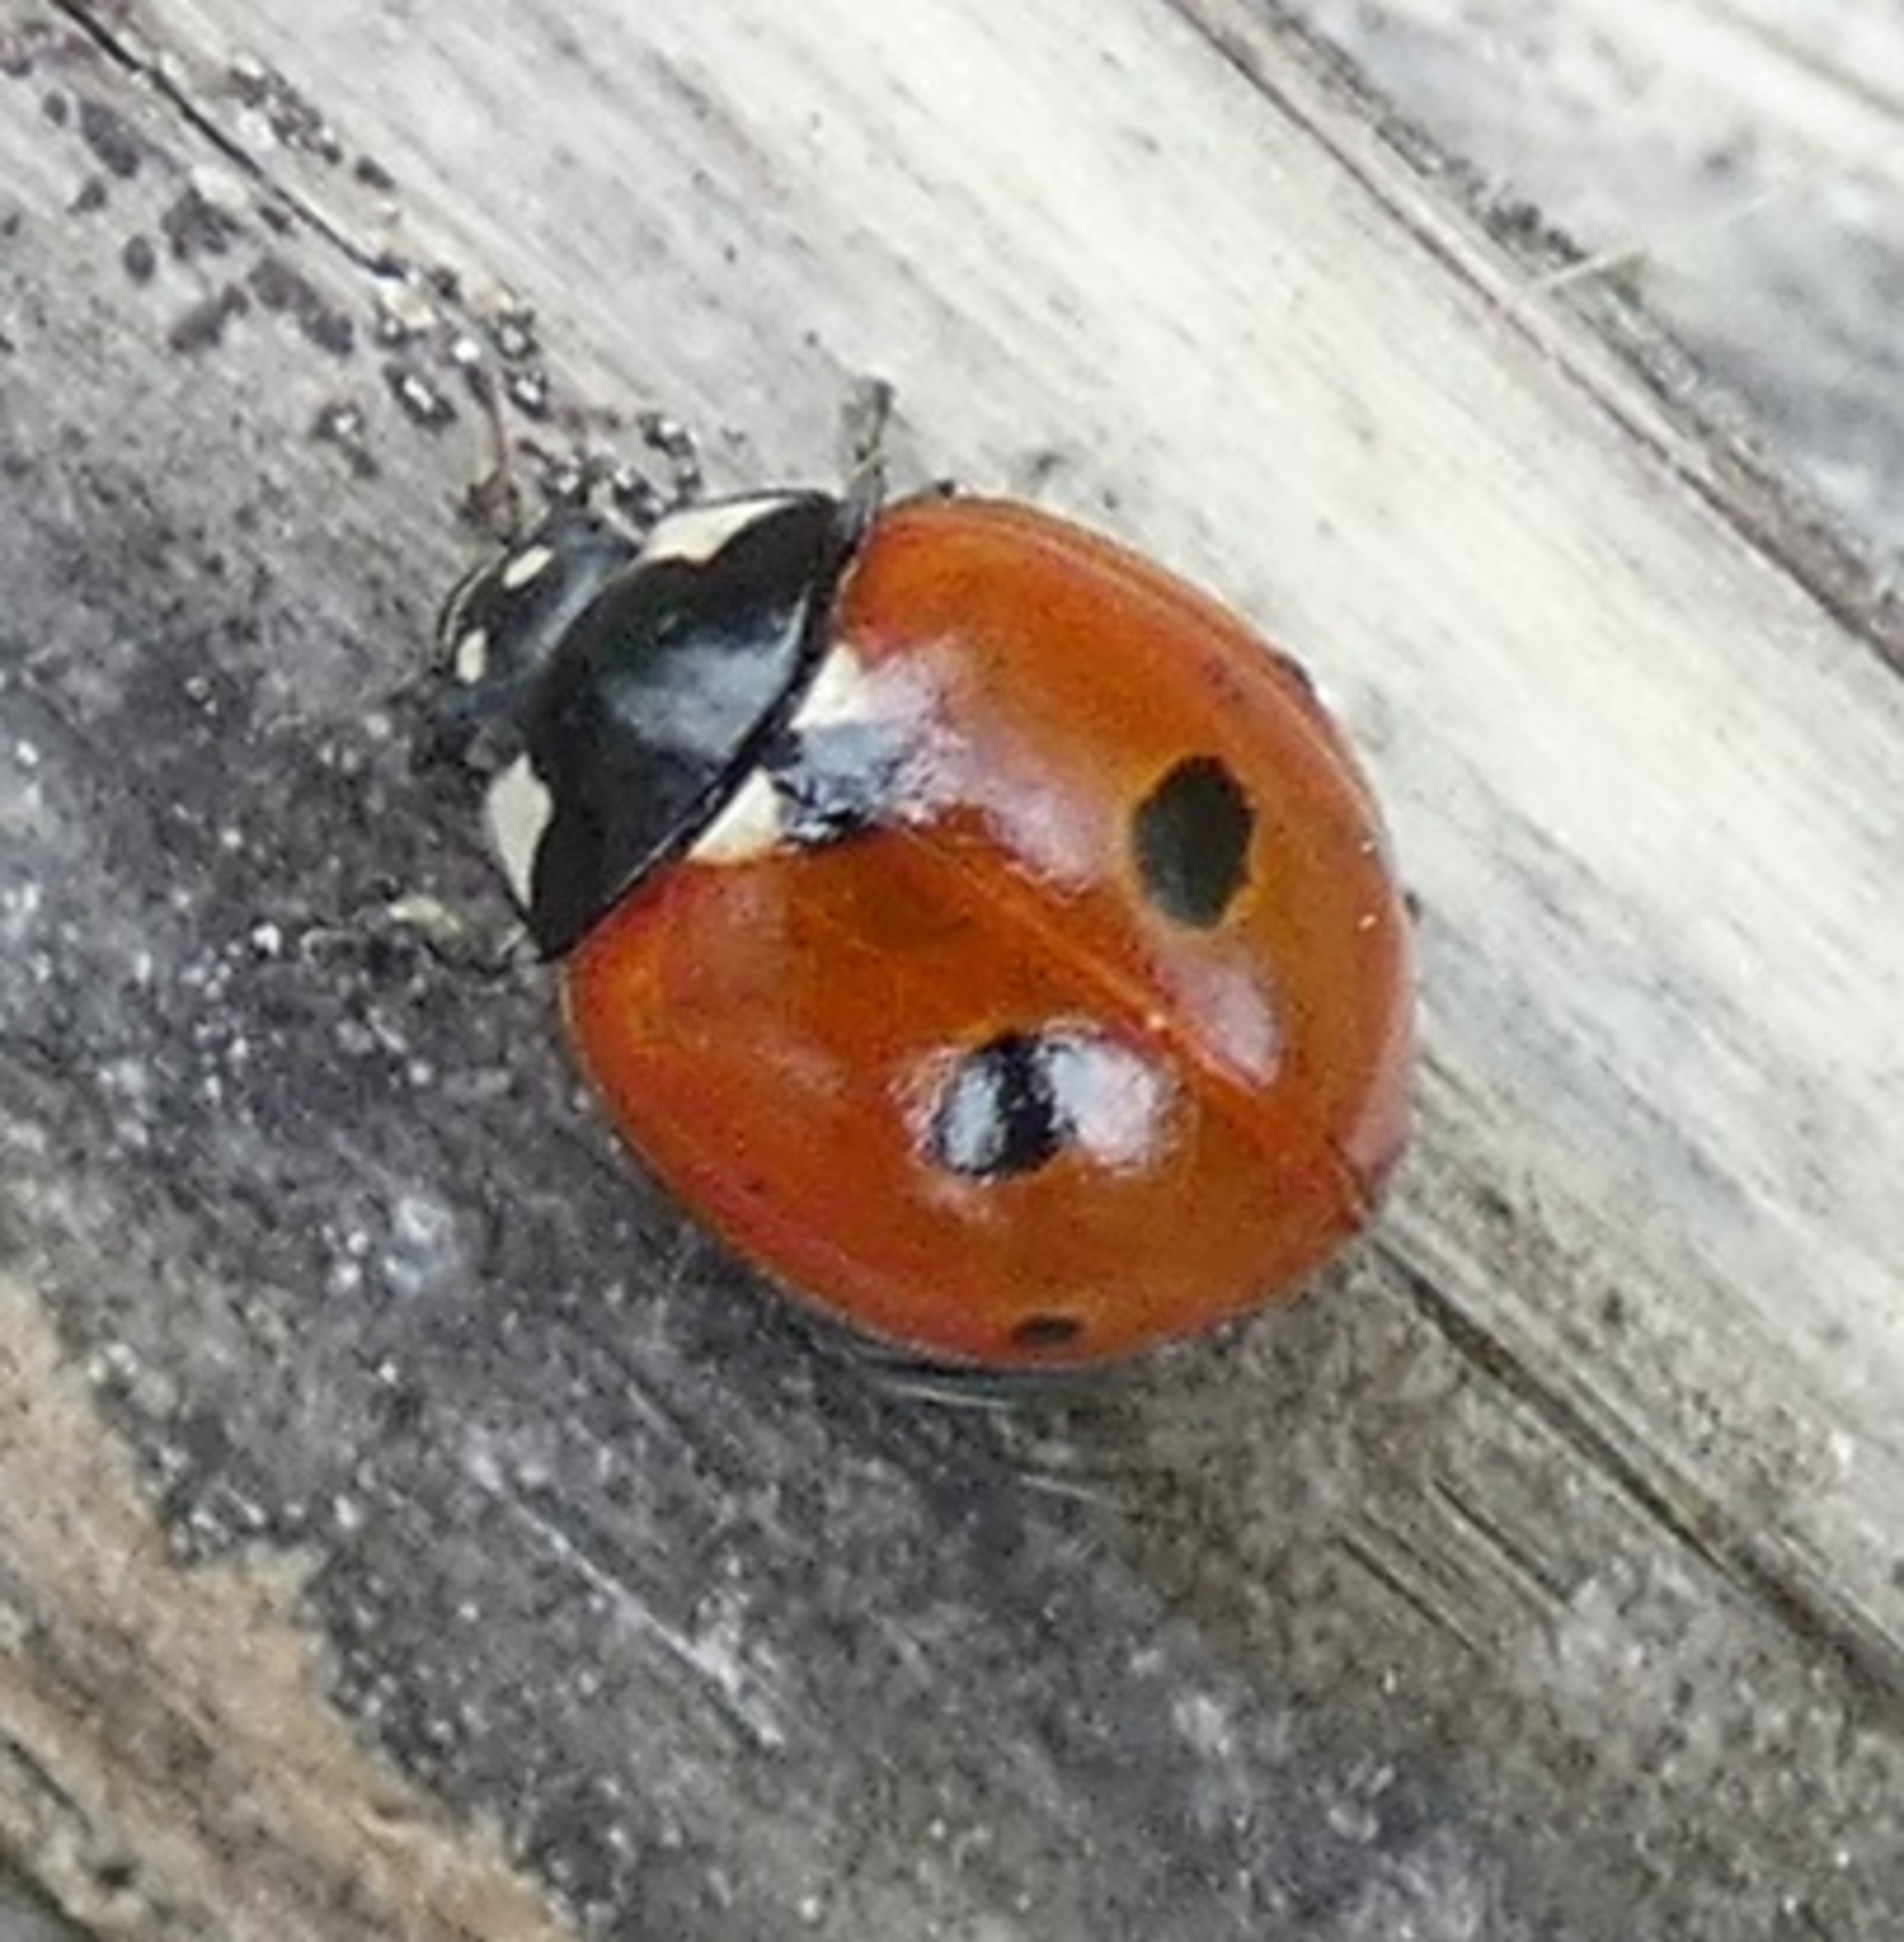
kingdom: Animalia
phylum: Arthropoda
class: Insecta
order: Coleoptera
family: Coccinellidae
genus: Coccinella
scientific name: Coccinella quinquepunctata
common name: Femplettet mariehøne
